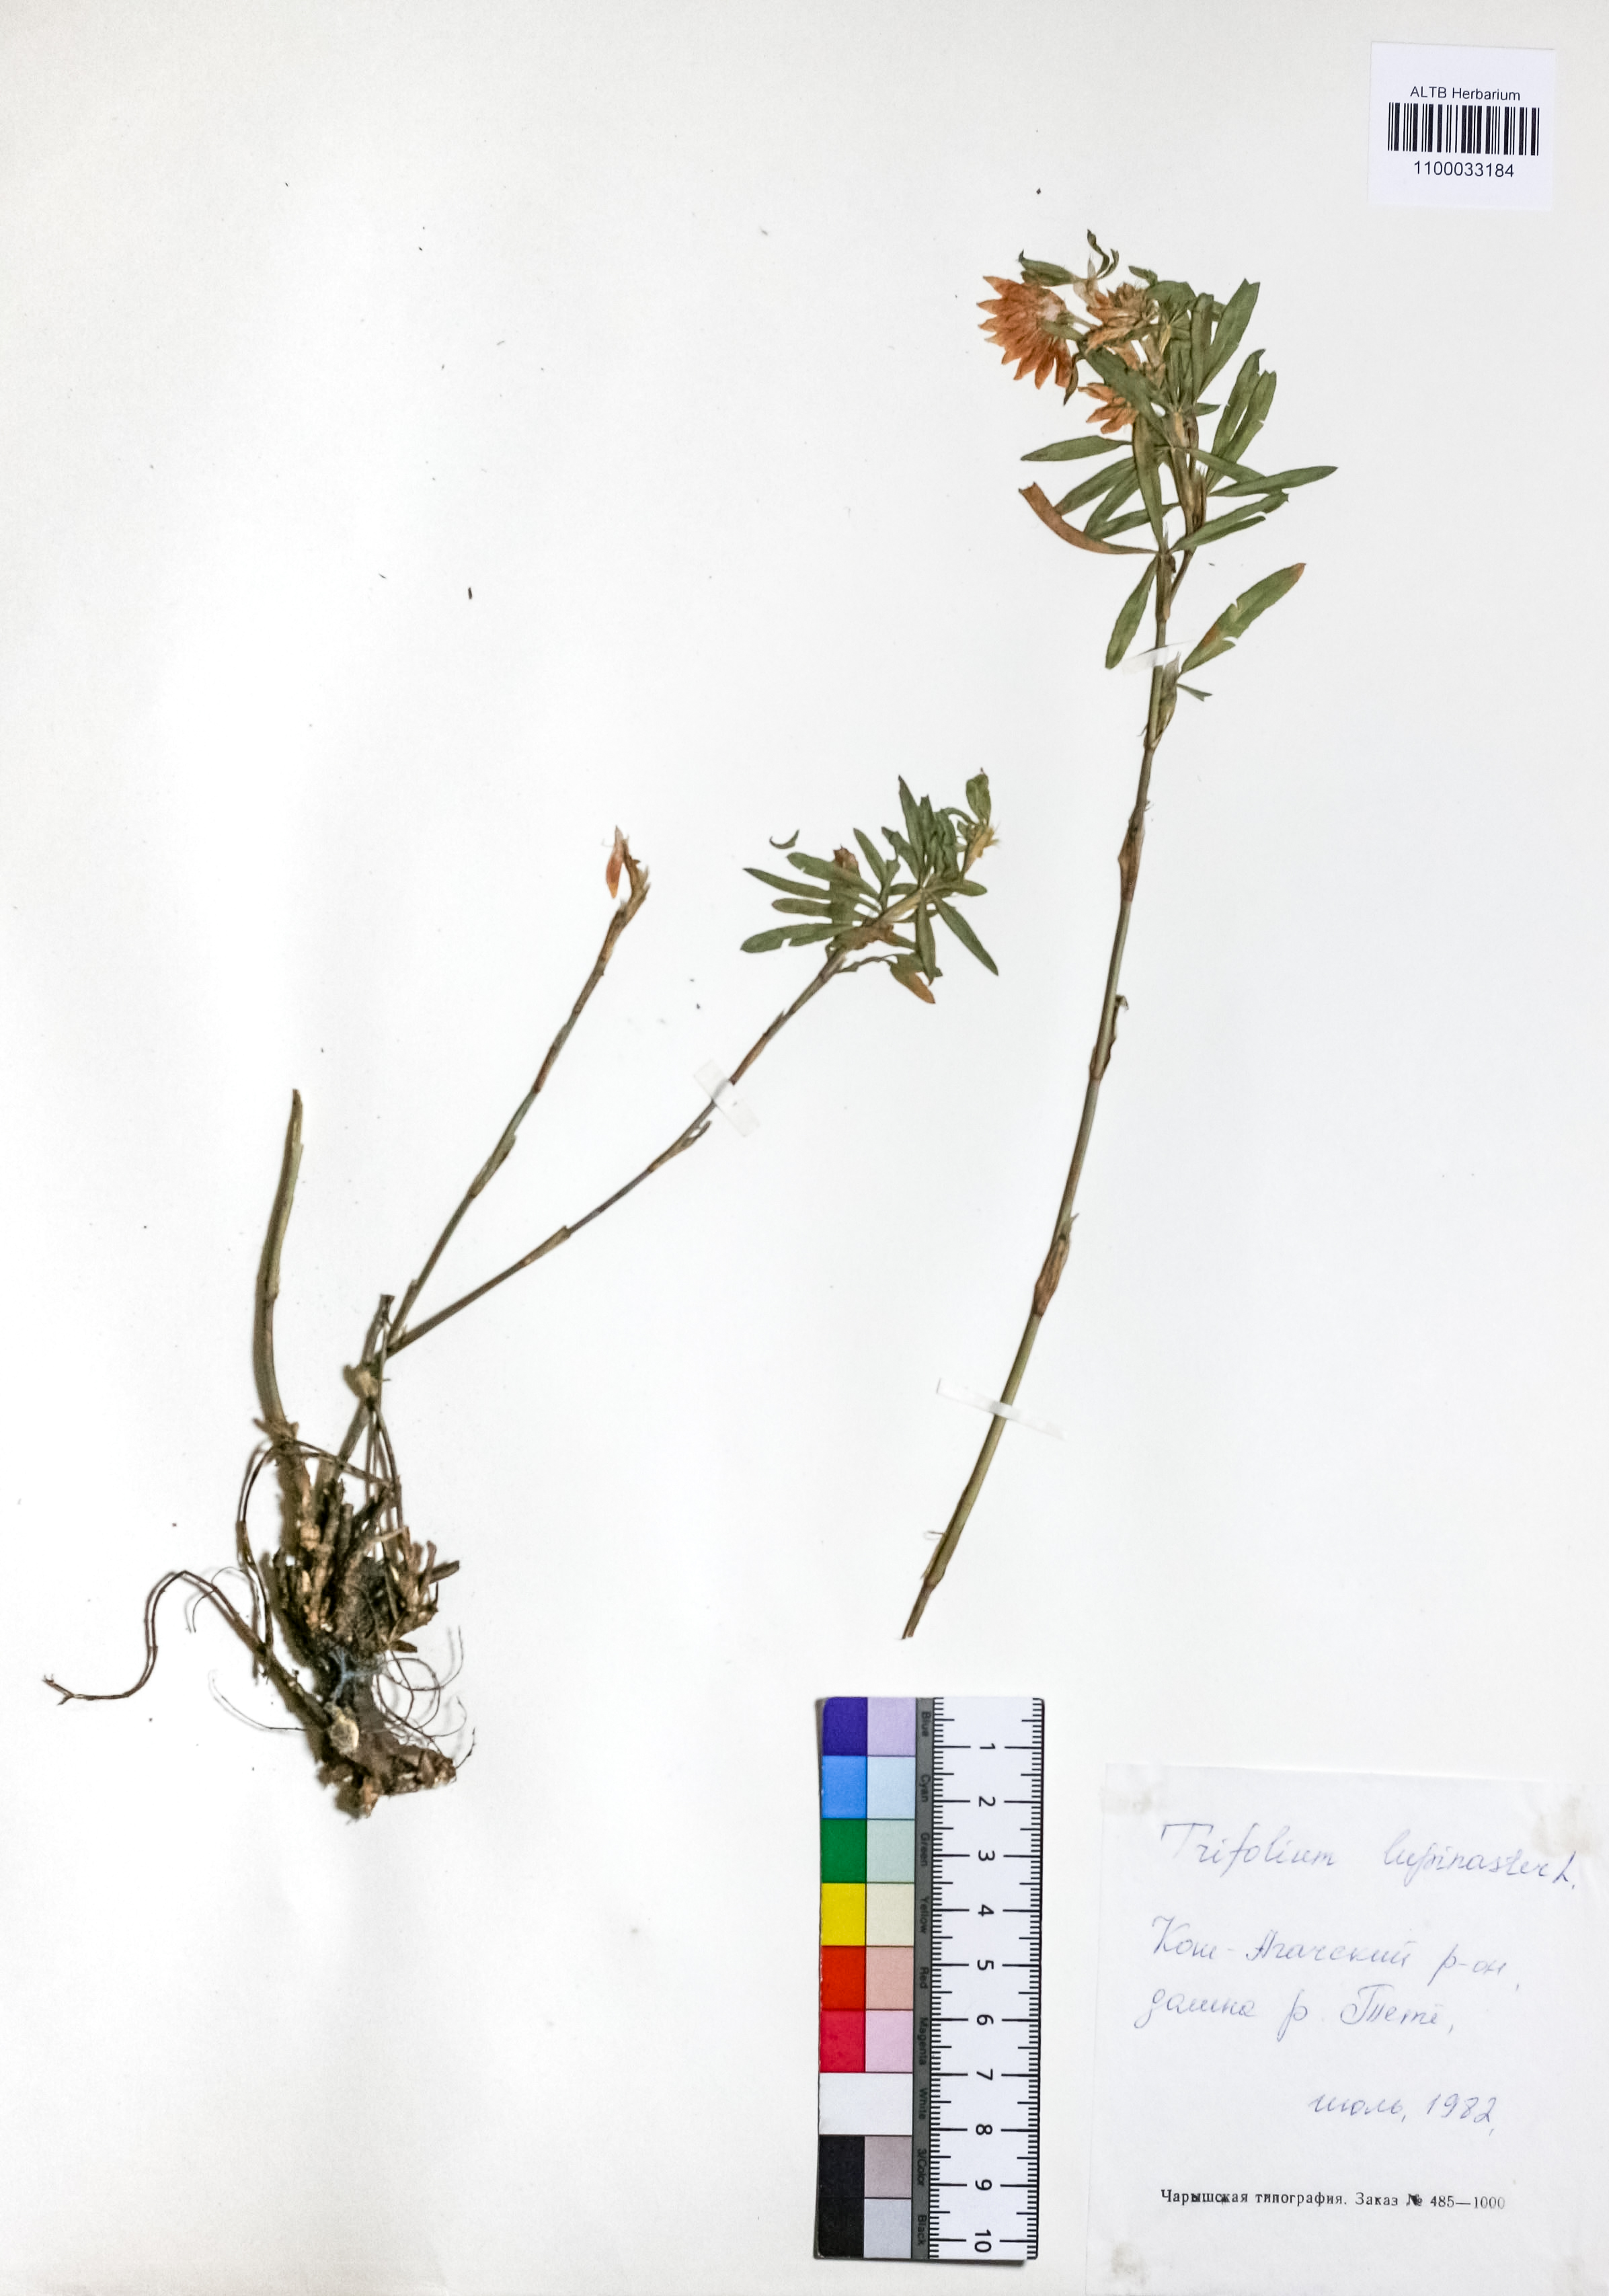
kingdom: Plantae
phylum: Tracheophyta
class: Magnoliopsida
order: Fabales
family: Fabaceae
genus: Trifolium
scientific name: Trifolium lupinaster
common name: Lupine clover
